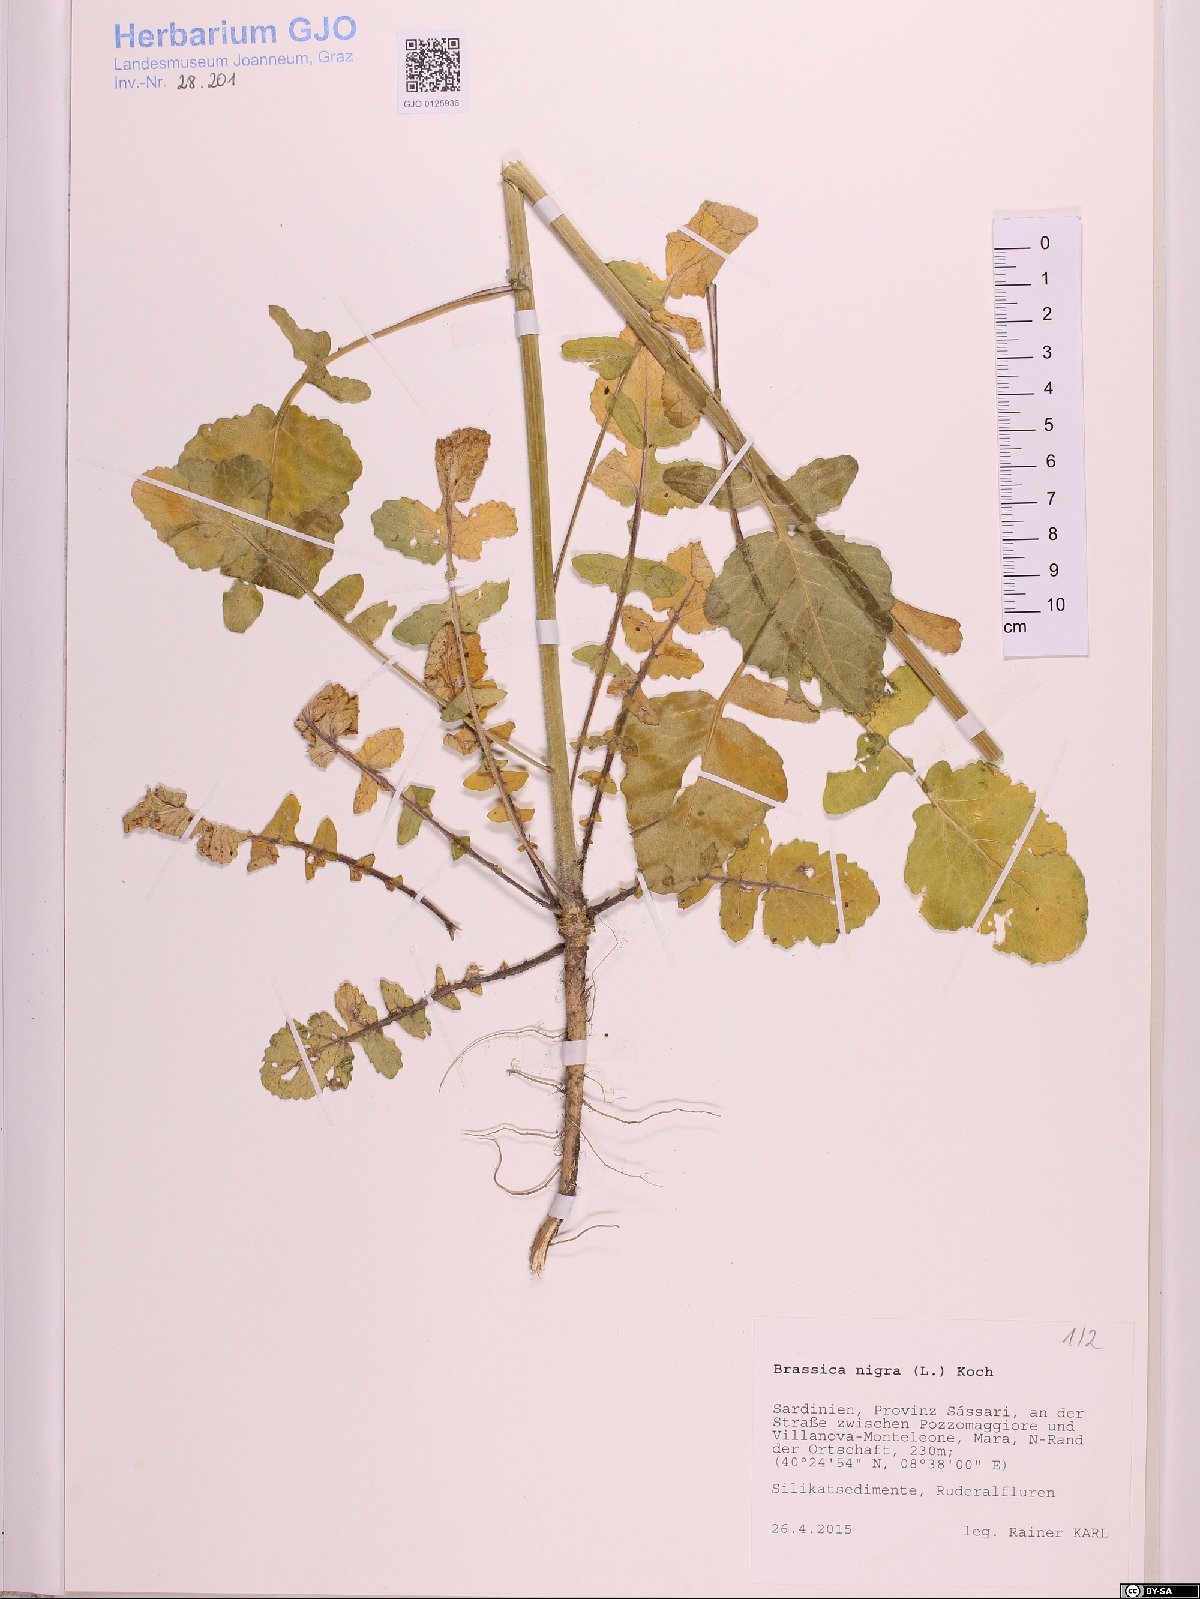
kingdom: Plantae
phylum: Tracheophyta
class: Magnoliopsida
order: Brassicales
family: Brassicaceae
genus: Brassica
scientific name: Brassica nigra
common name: Black mustard
